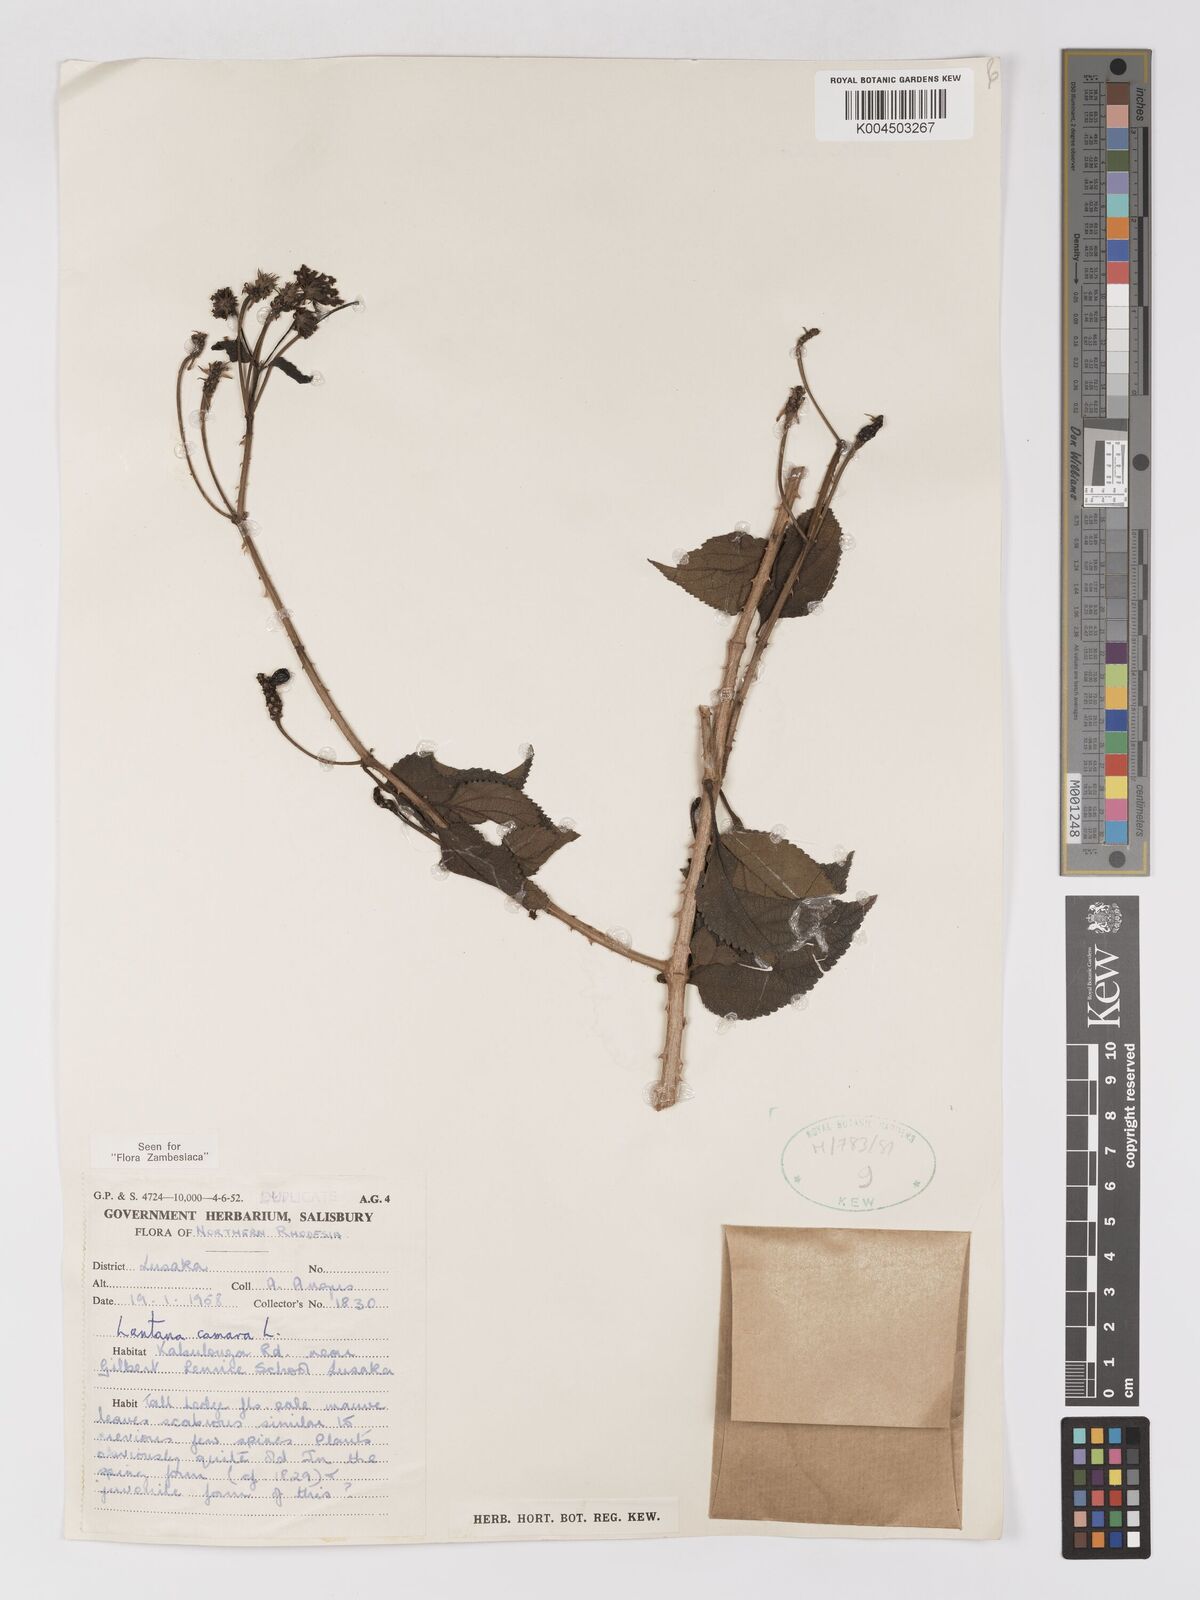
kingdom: Plantae
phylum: Tracheophyta
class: Magnoliopsida
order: Lamiales
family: Verbenaceae
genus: Lantana
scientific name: Lantana camara
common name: Lantana
